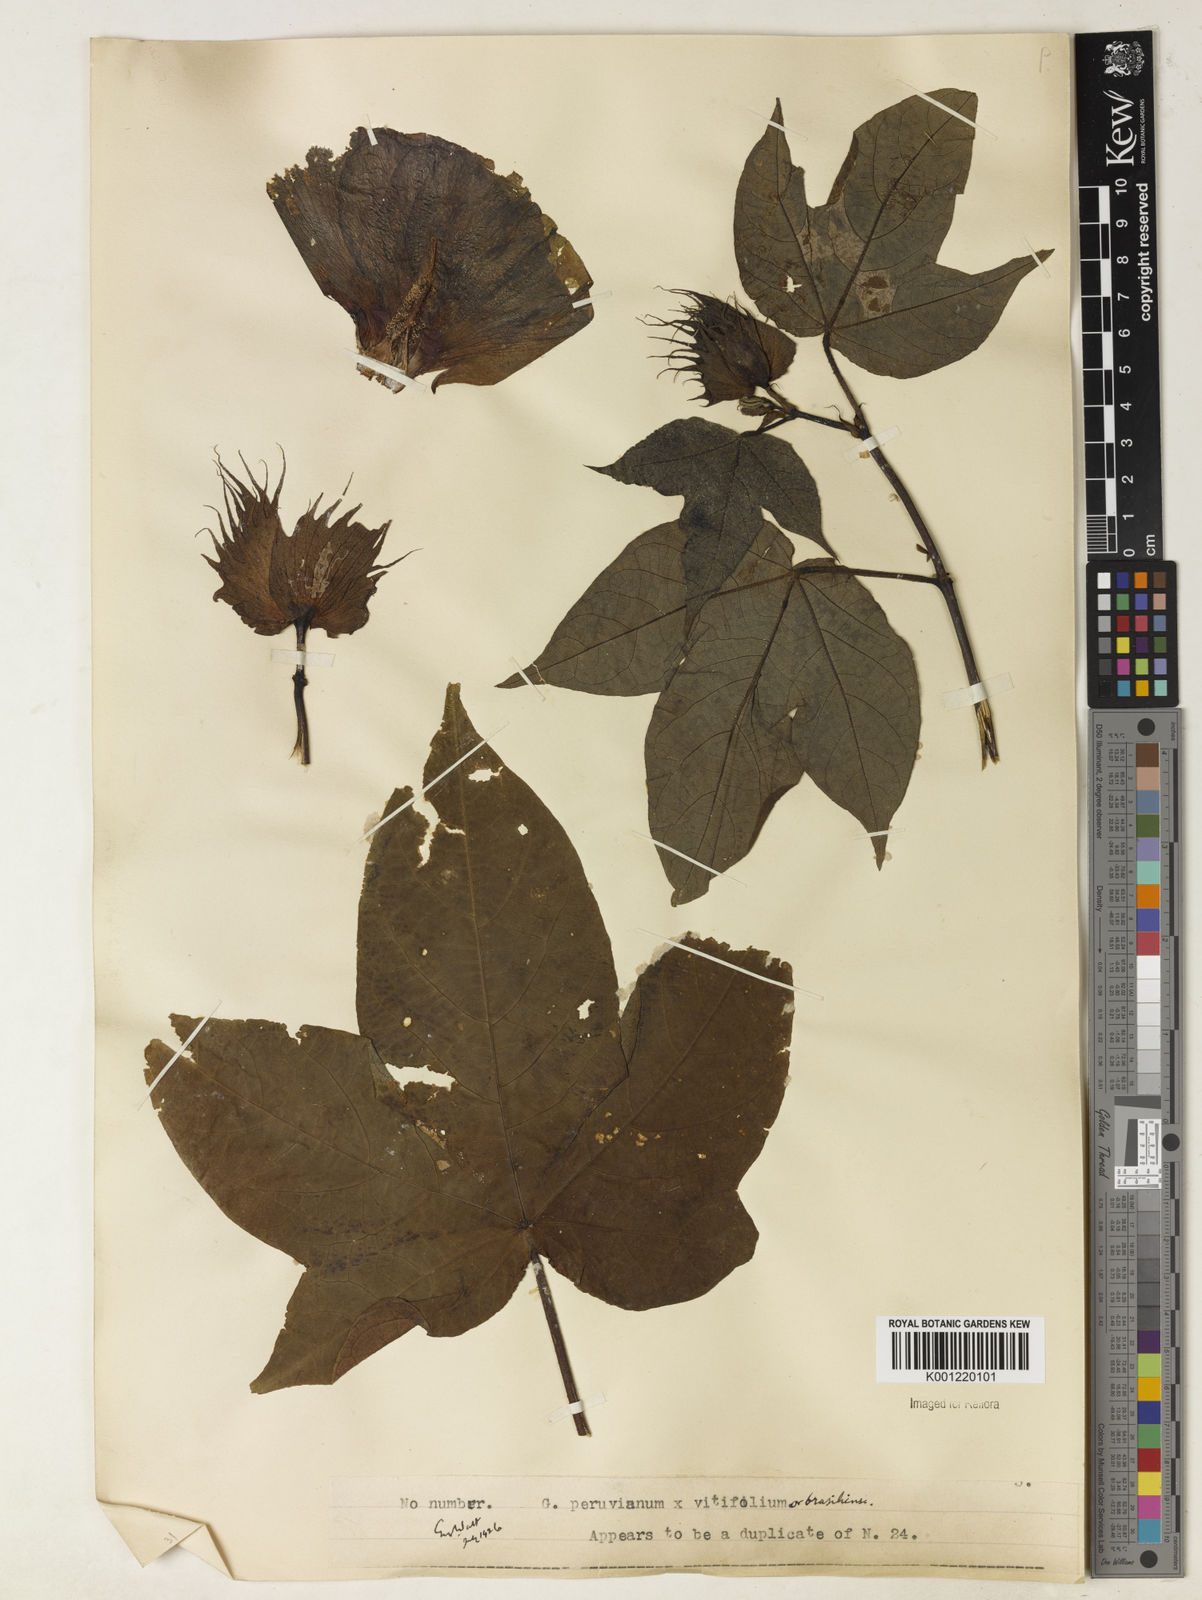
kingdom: Plantae
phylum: Tracheophyta
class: Magnoliopsida
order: Malvales
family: Malvaceae
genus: Gossypium
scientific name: Gossypium
